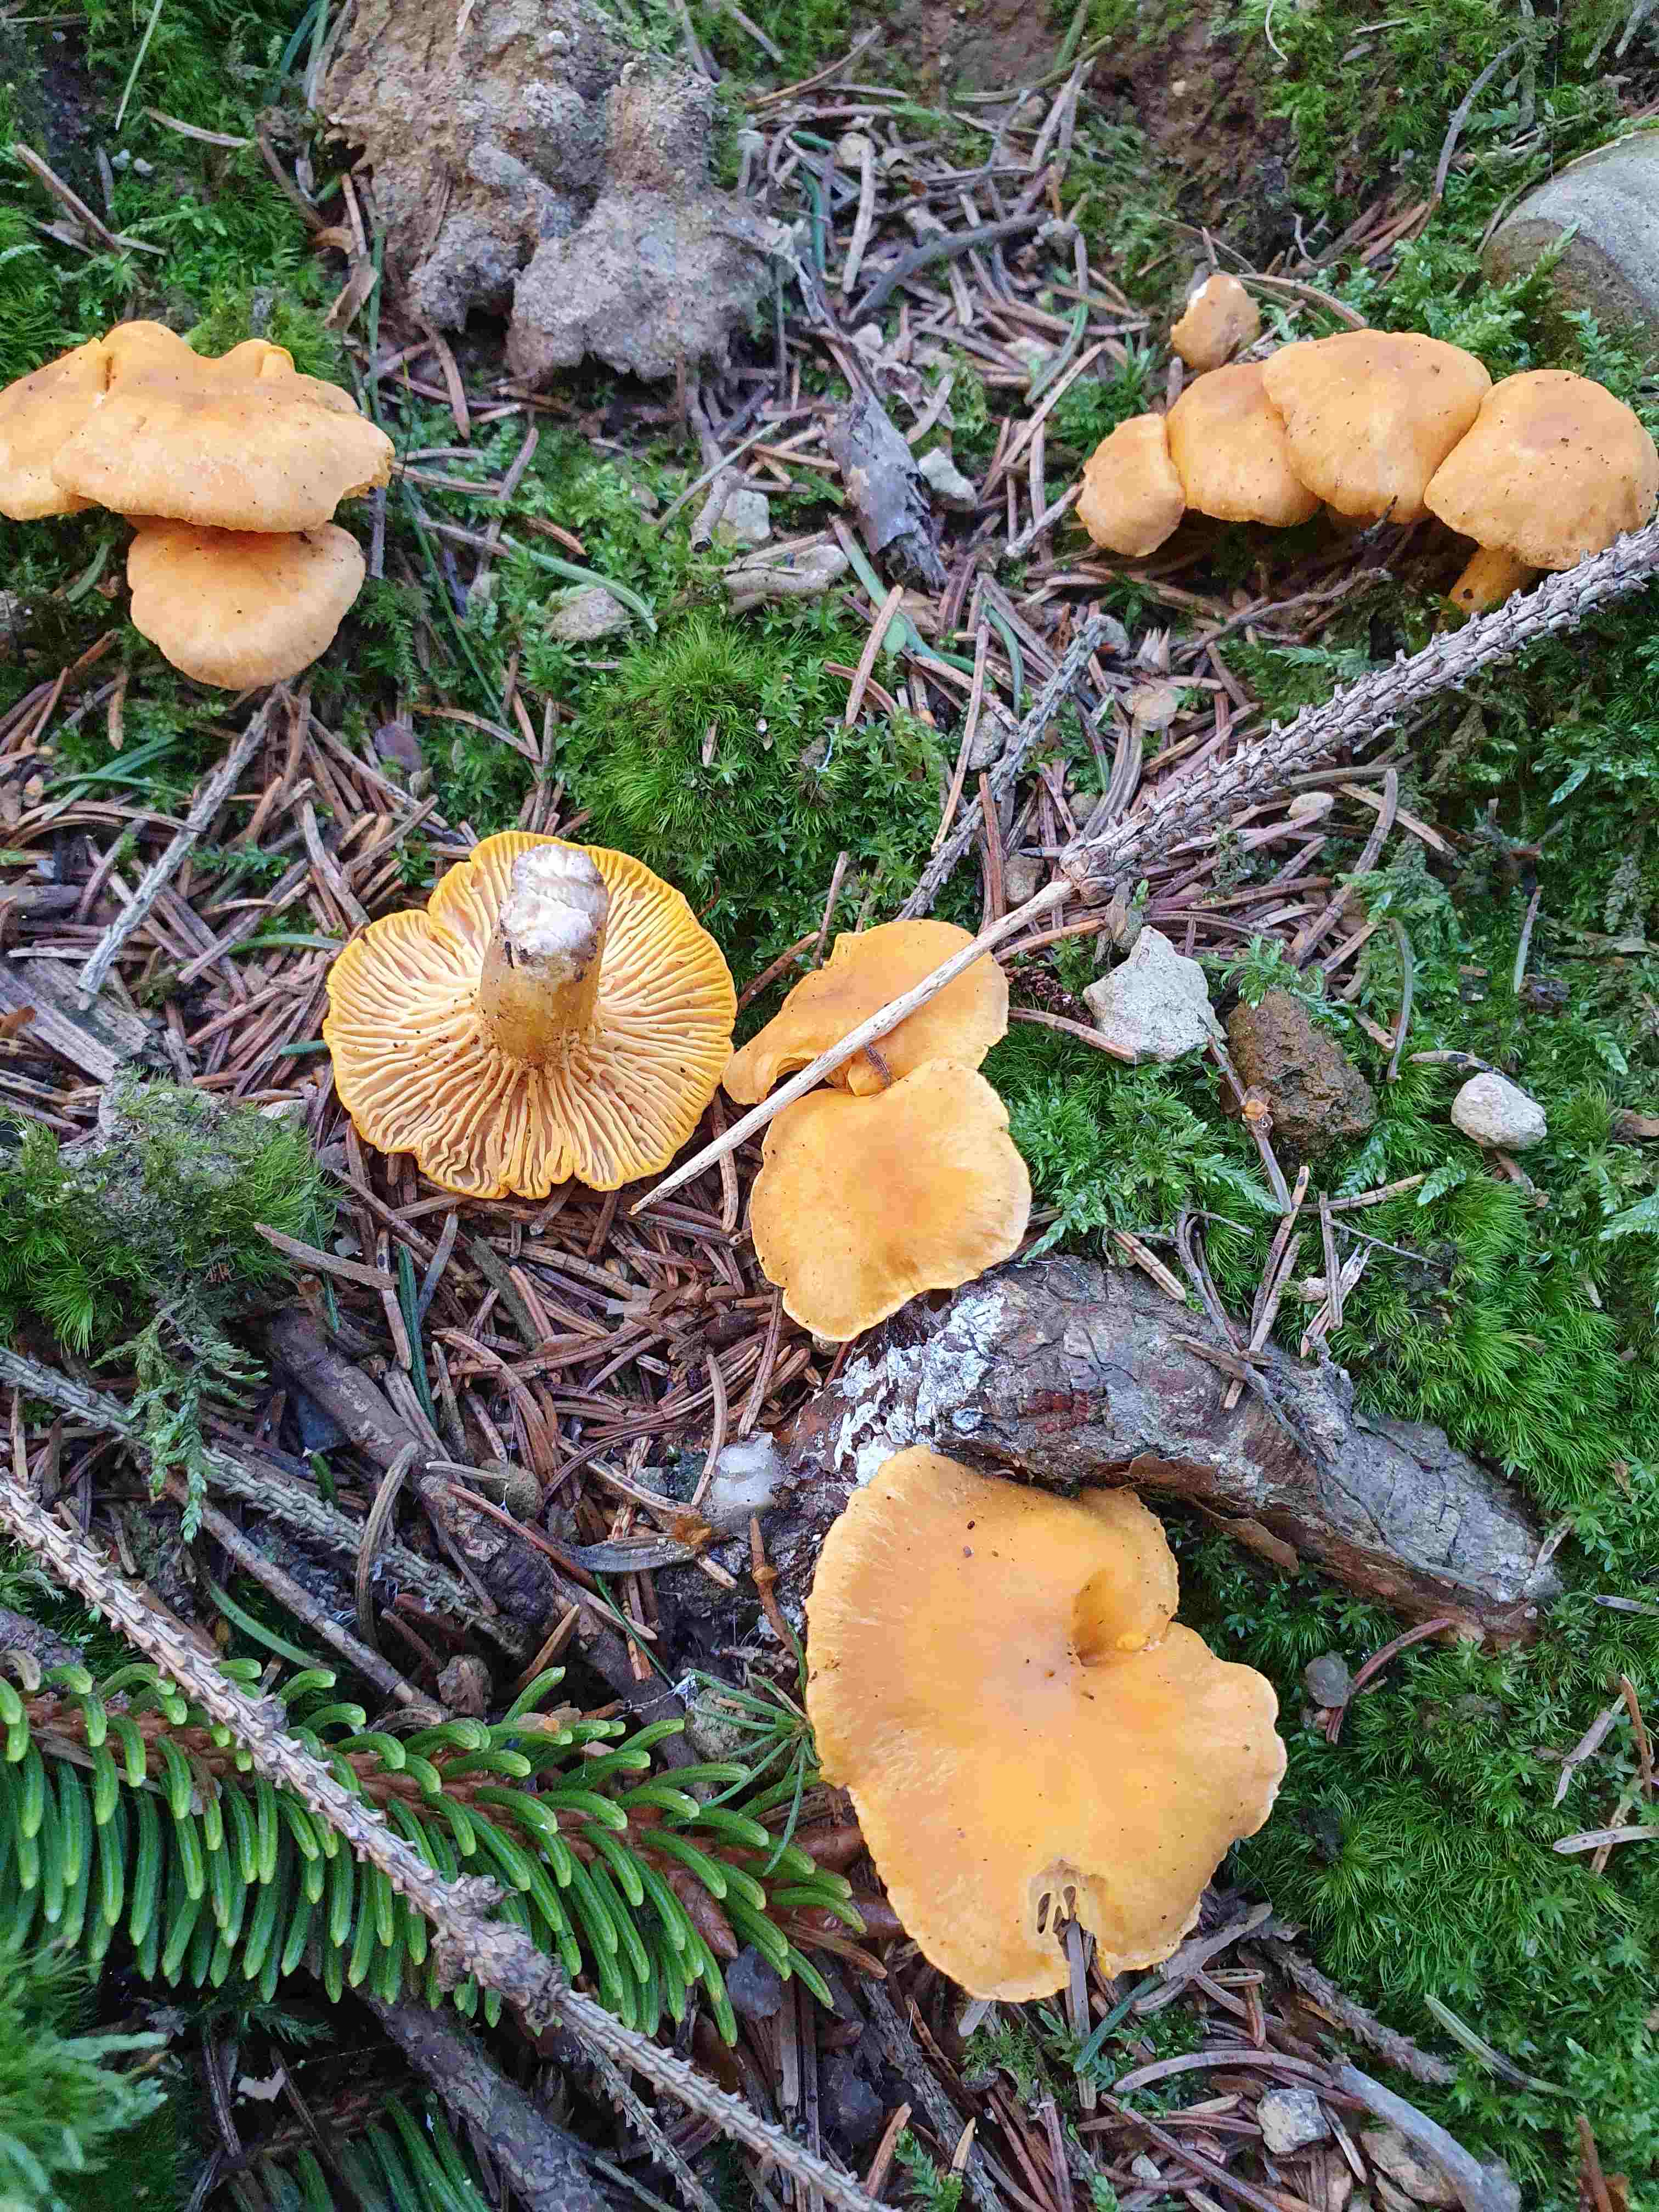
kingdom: Fungi
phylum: Basidiomycota
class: Agaricomycetes
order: Cantharellales
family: Hydnaceae
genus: Cantharellus
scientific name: Cantharellus cibarius
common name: almindelig kantarel
